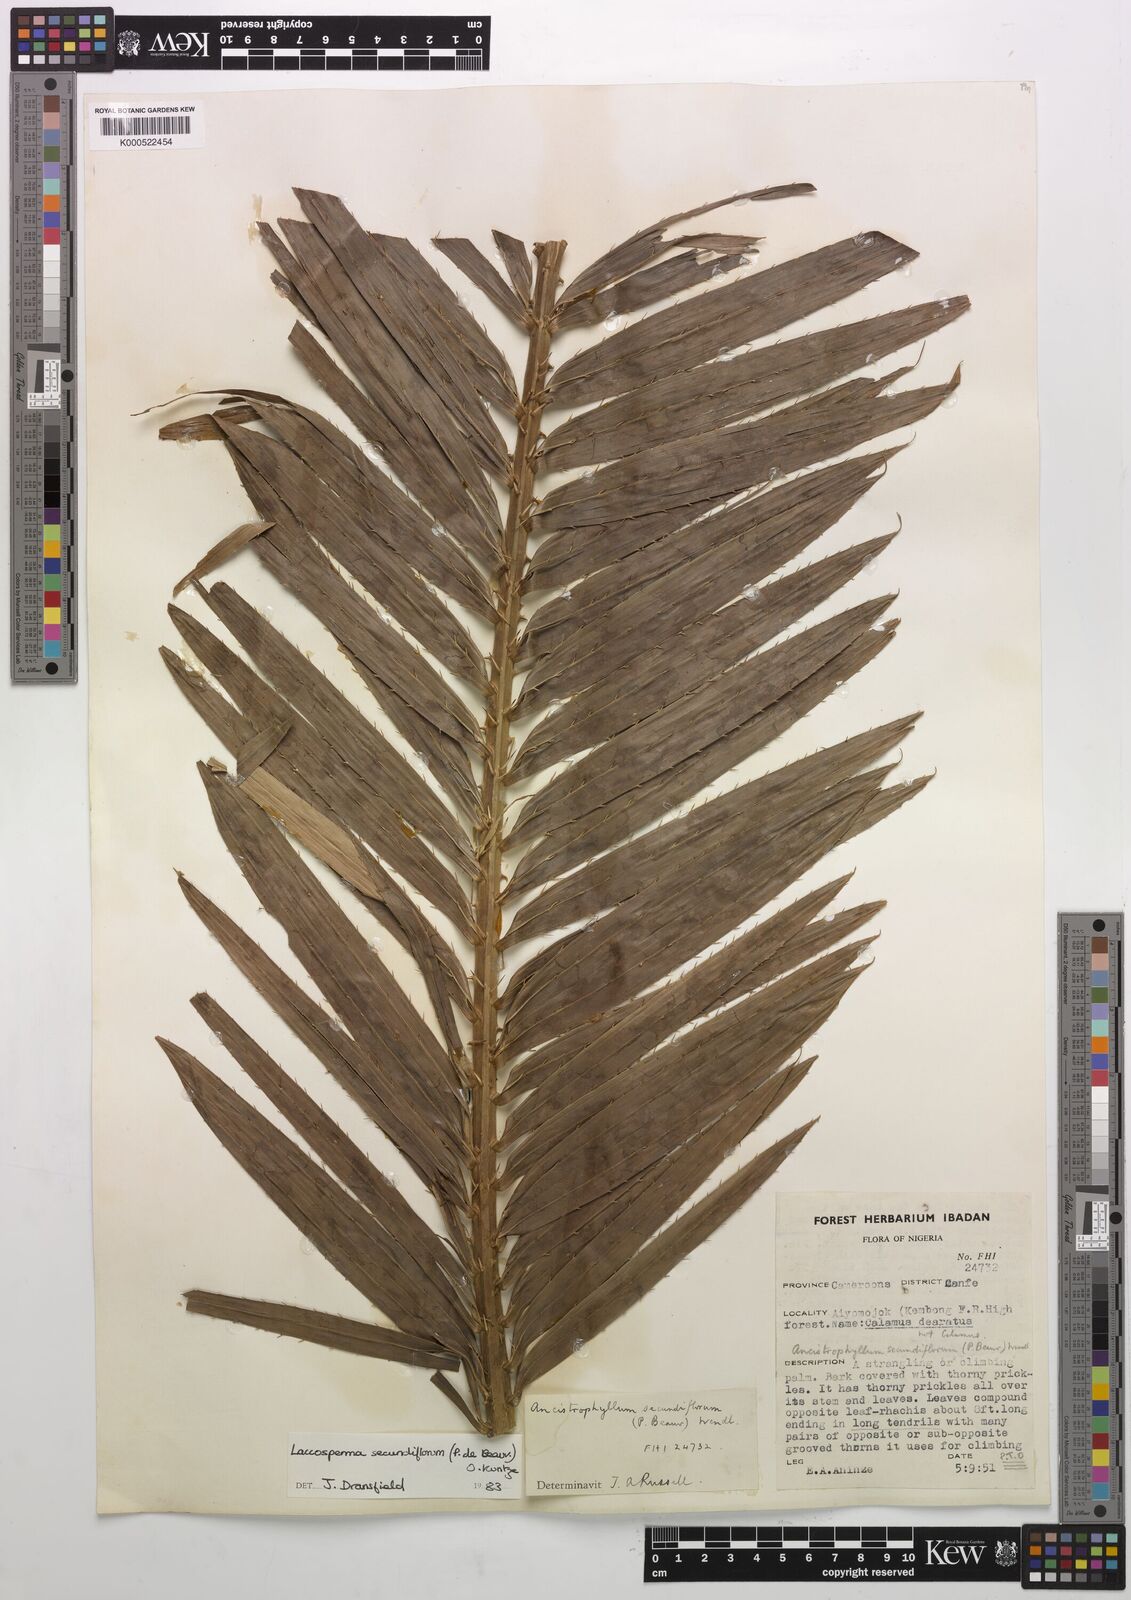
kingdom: Plantae
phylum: Tracheophyta
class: Liliopsida
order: Arecales
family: Arecaceae
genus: Laccosperma
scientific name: Laccosperma secundiflorum
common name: Rattan
